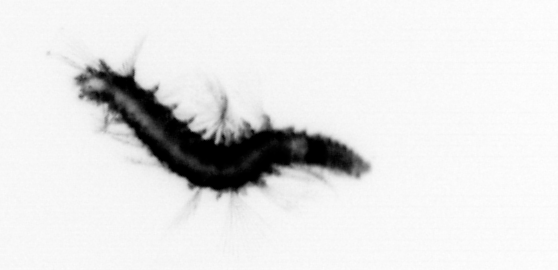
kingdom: Animalia
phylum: Annelida
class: Polychaeta
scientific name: Polychaeta
